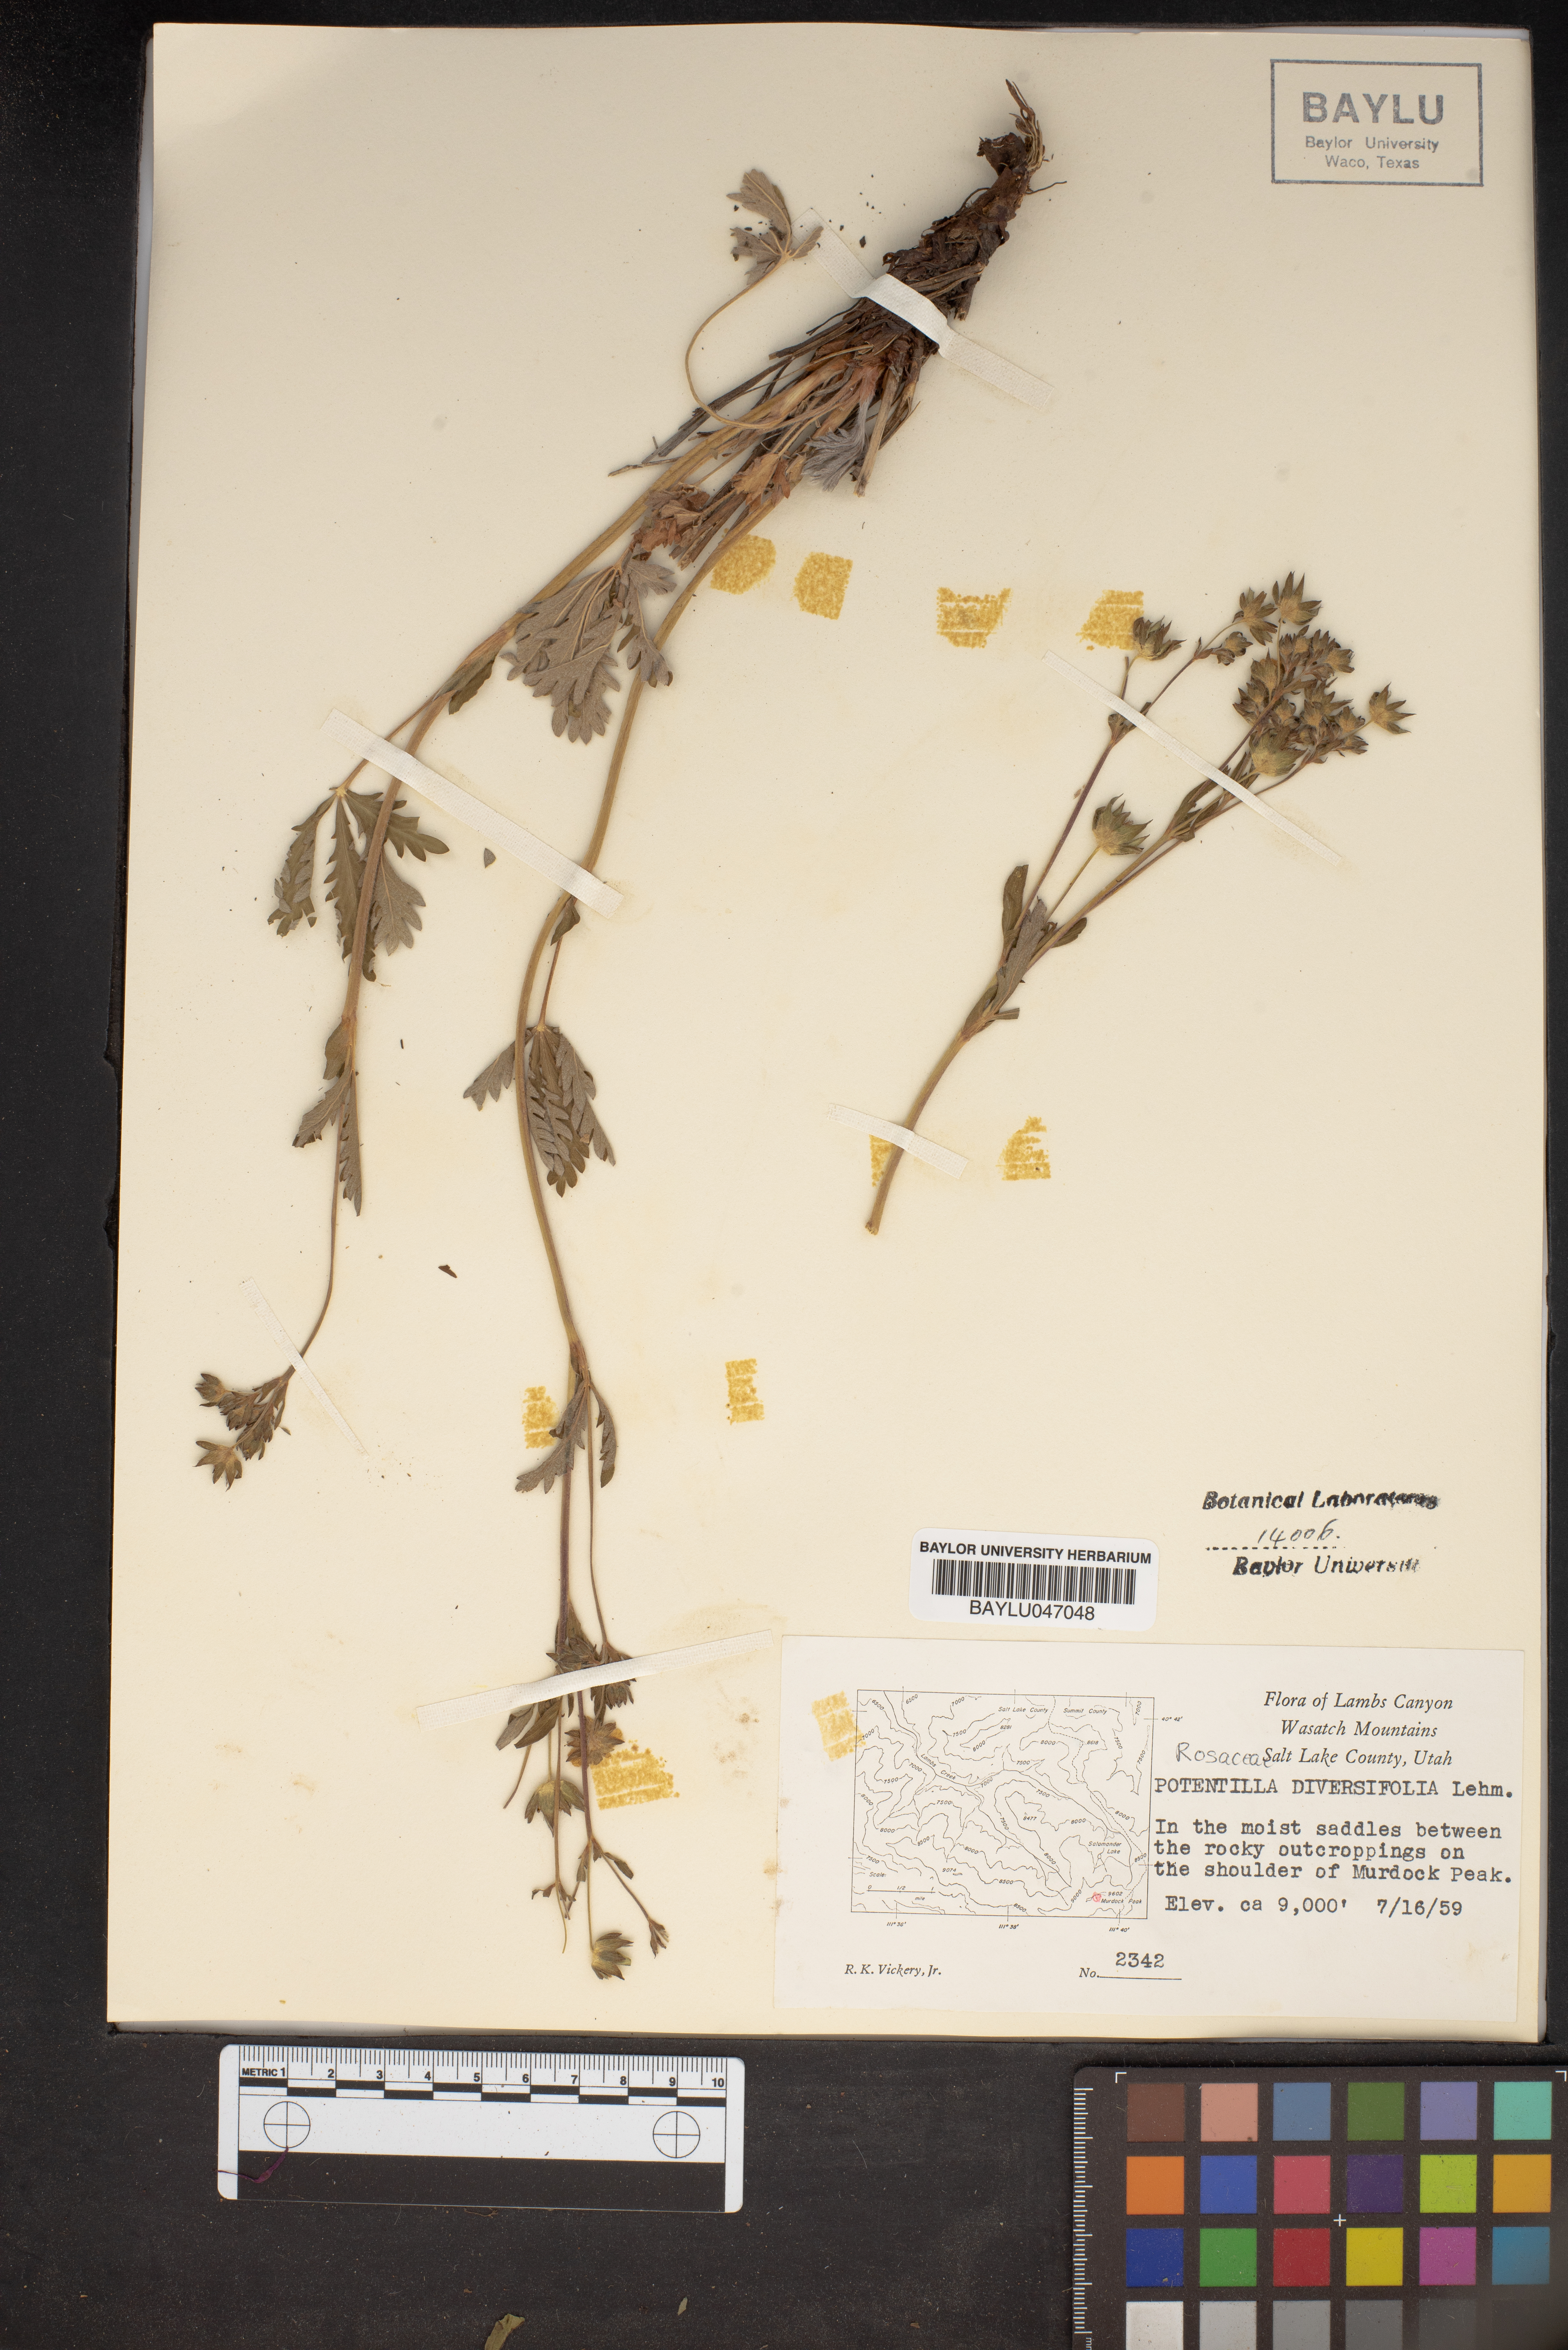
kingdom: Plantae
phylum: Tracheophyta
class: Magnoliopsida
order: Rosales
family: Rosaceae
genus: Potentilla
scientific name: Potentilla diversifolia
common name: Varileaf cinquefoil
